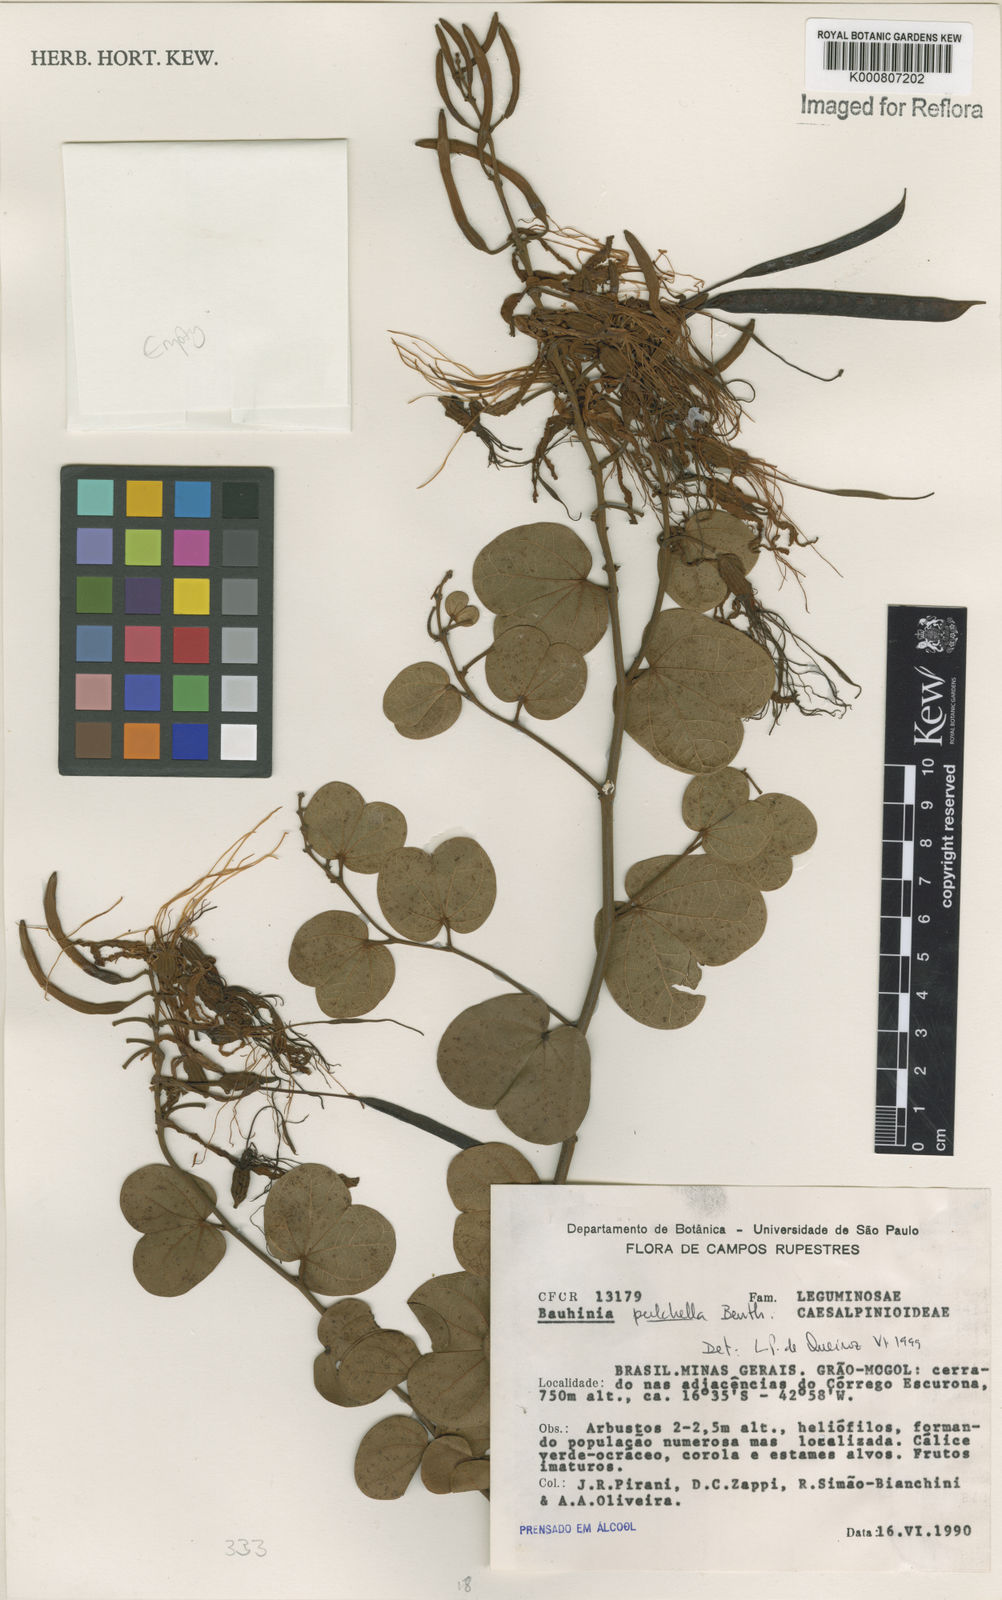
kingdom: Plantae
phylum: Tracheophyta
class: Magnoliopsida
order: Fabales
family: Fabaceae
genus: Bauhinia
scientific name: Bauhinia pulchella
